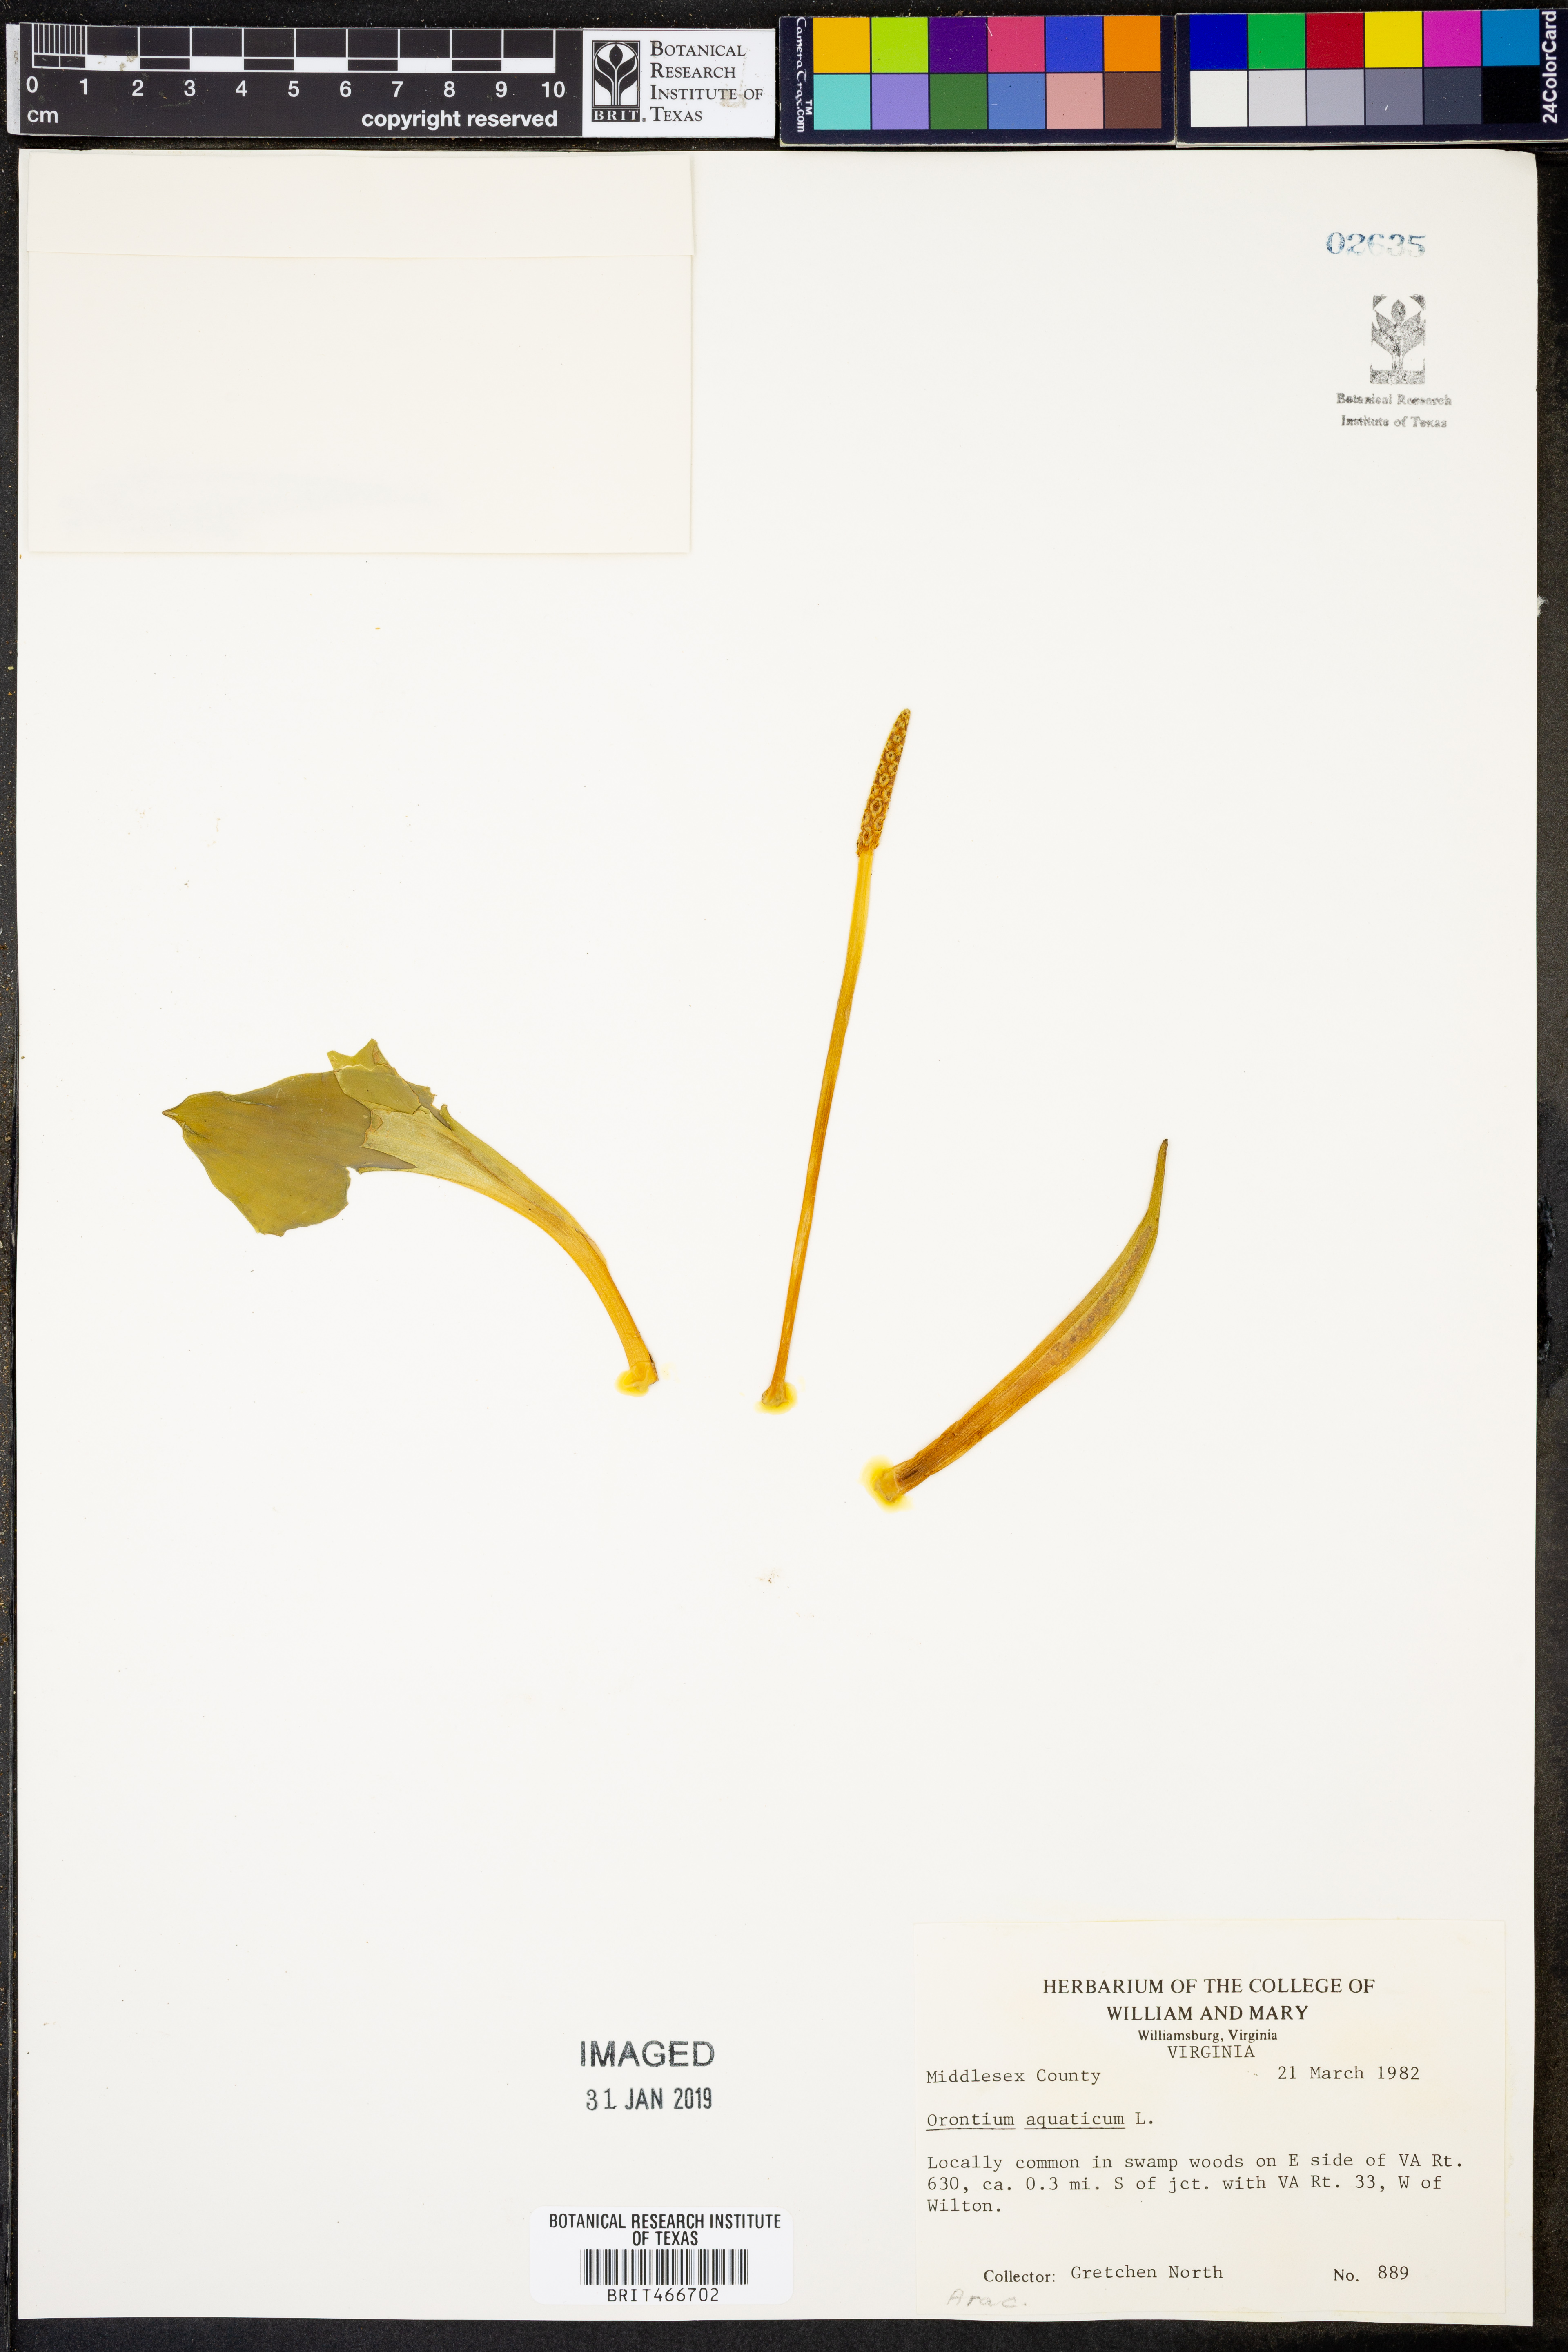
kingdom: Plantae
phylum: Tracheophyta
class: Liliopsida
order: Alismatales
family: Araceae
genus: Orontium
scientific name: Orontium aquaticum
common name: Golden-club
